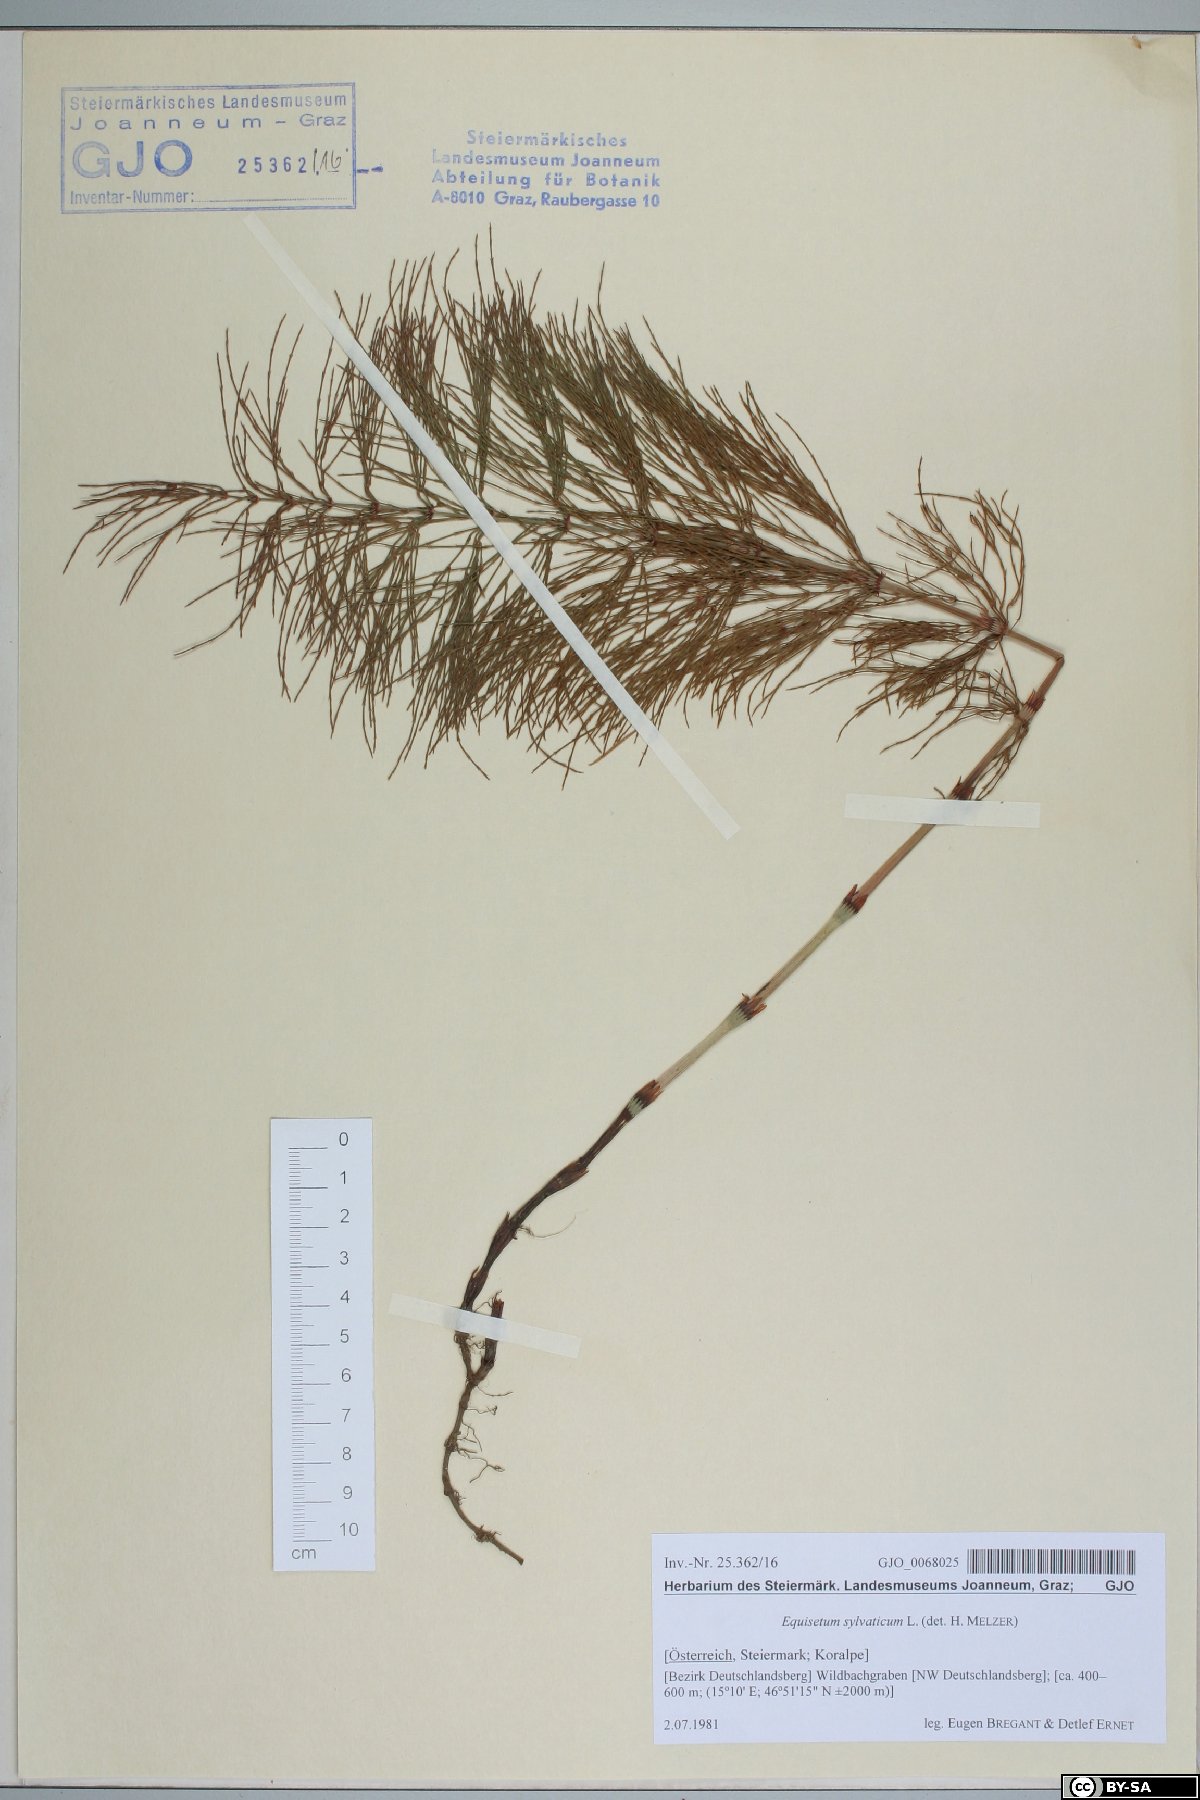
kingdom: Plantae
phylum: Tracheophyta
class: Polypodiopsida
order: Equisetales
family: Equisetaceae
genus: Equisetum
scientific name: Equisetum sylvaticum
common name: Wood horsetail
